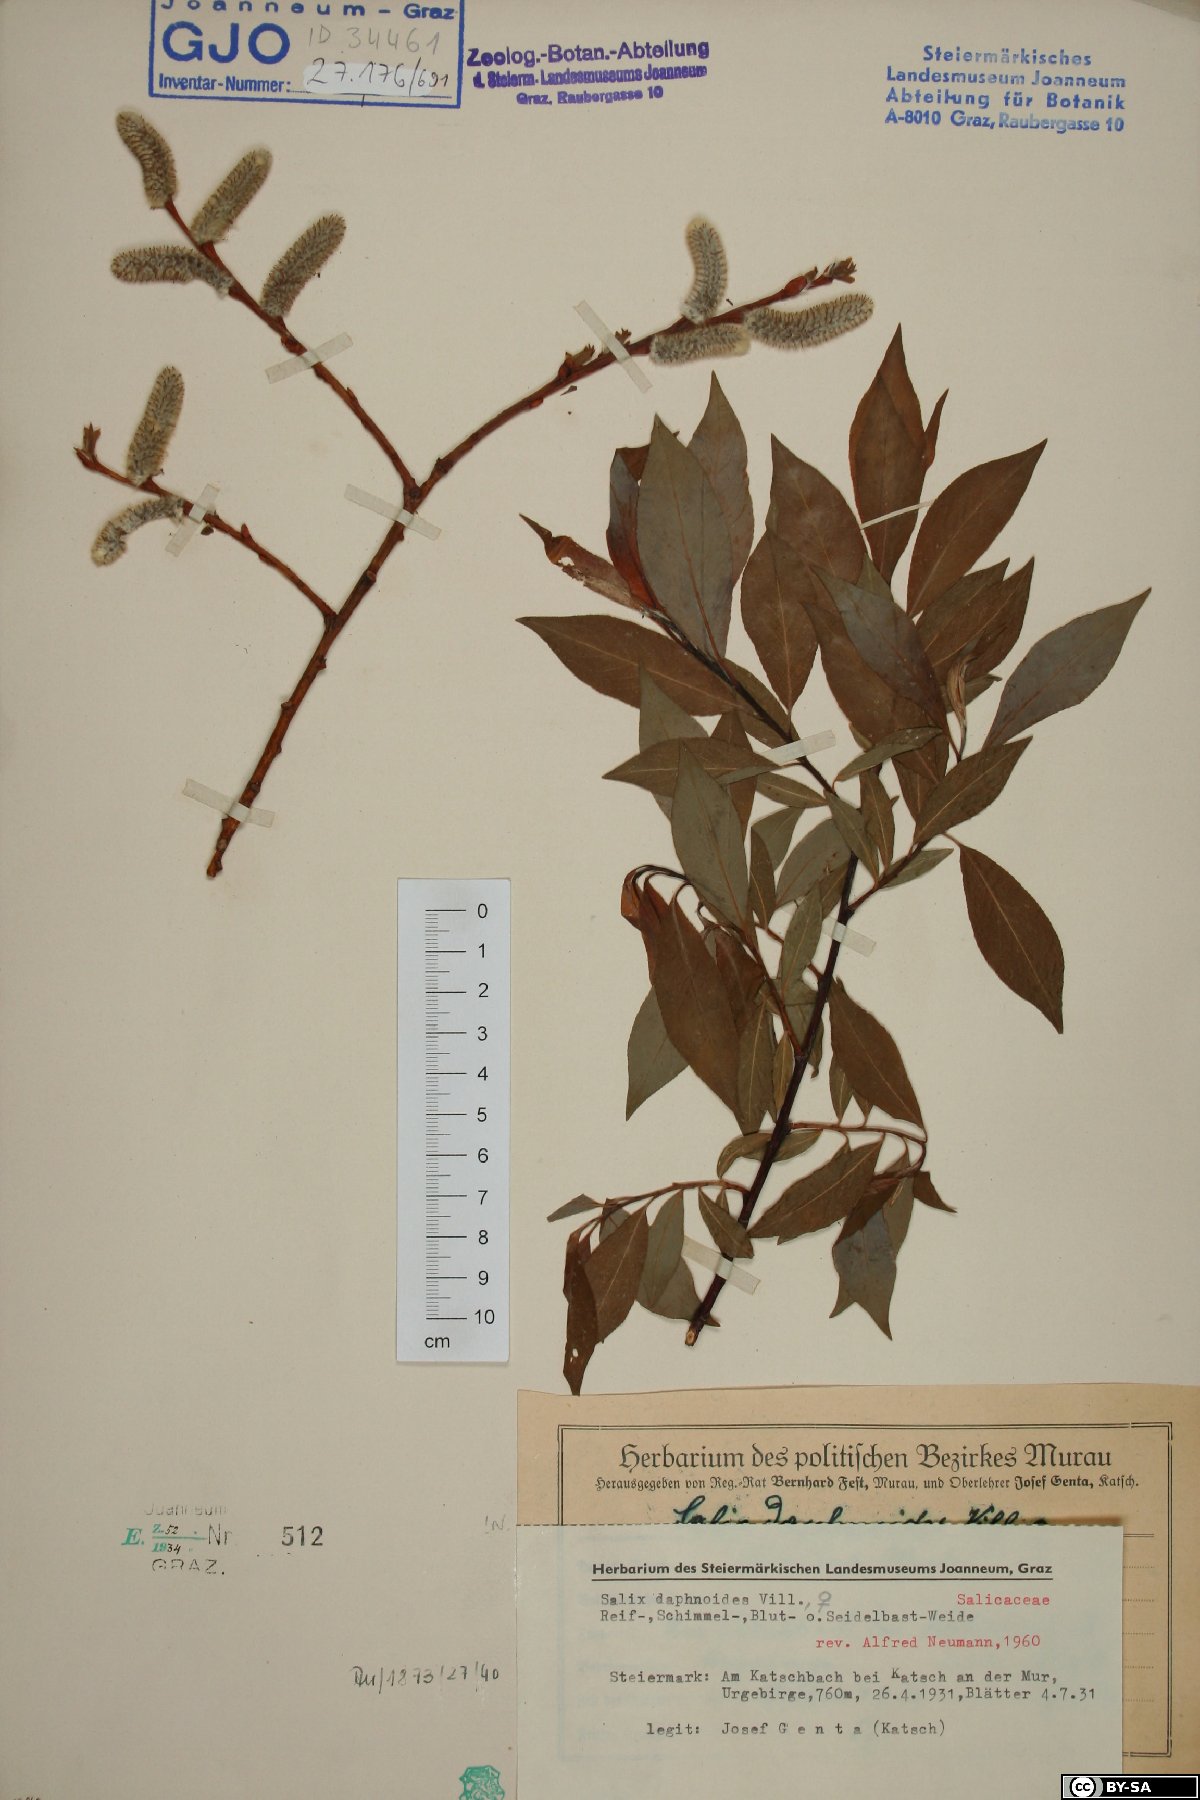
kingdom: Plantae
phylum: Tracheophyta
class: Magnoliopsida
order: Malpighiales
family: Salicaceae
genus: Salix
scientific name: Salix daphnoides
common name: European violet-willow
